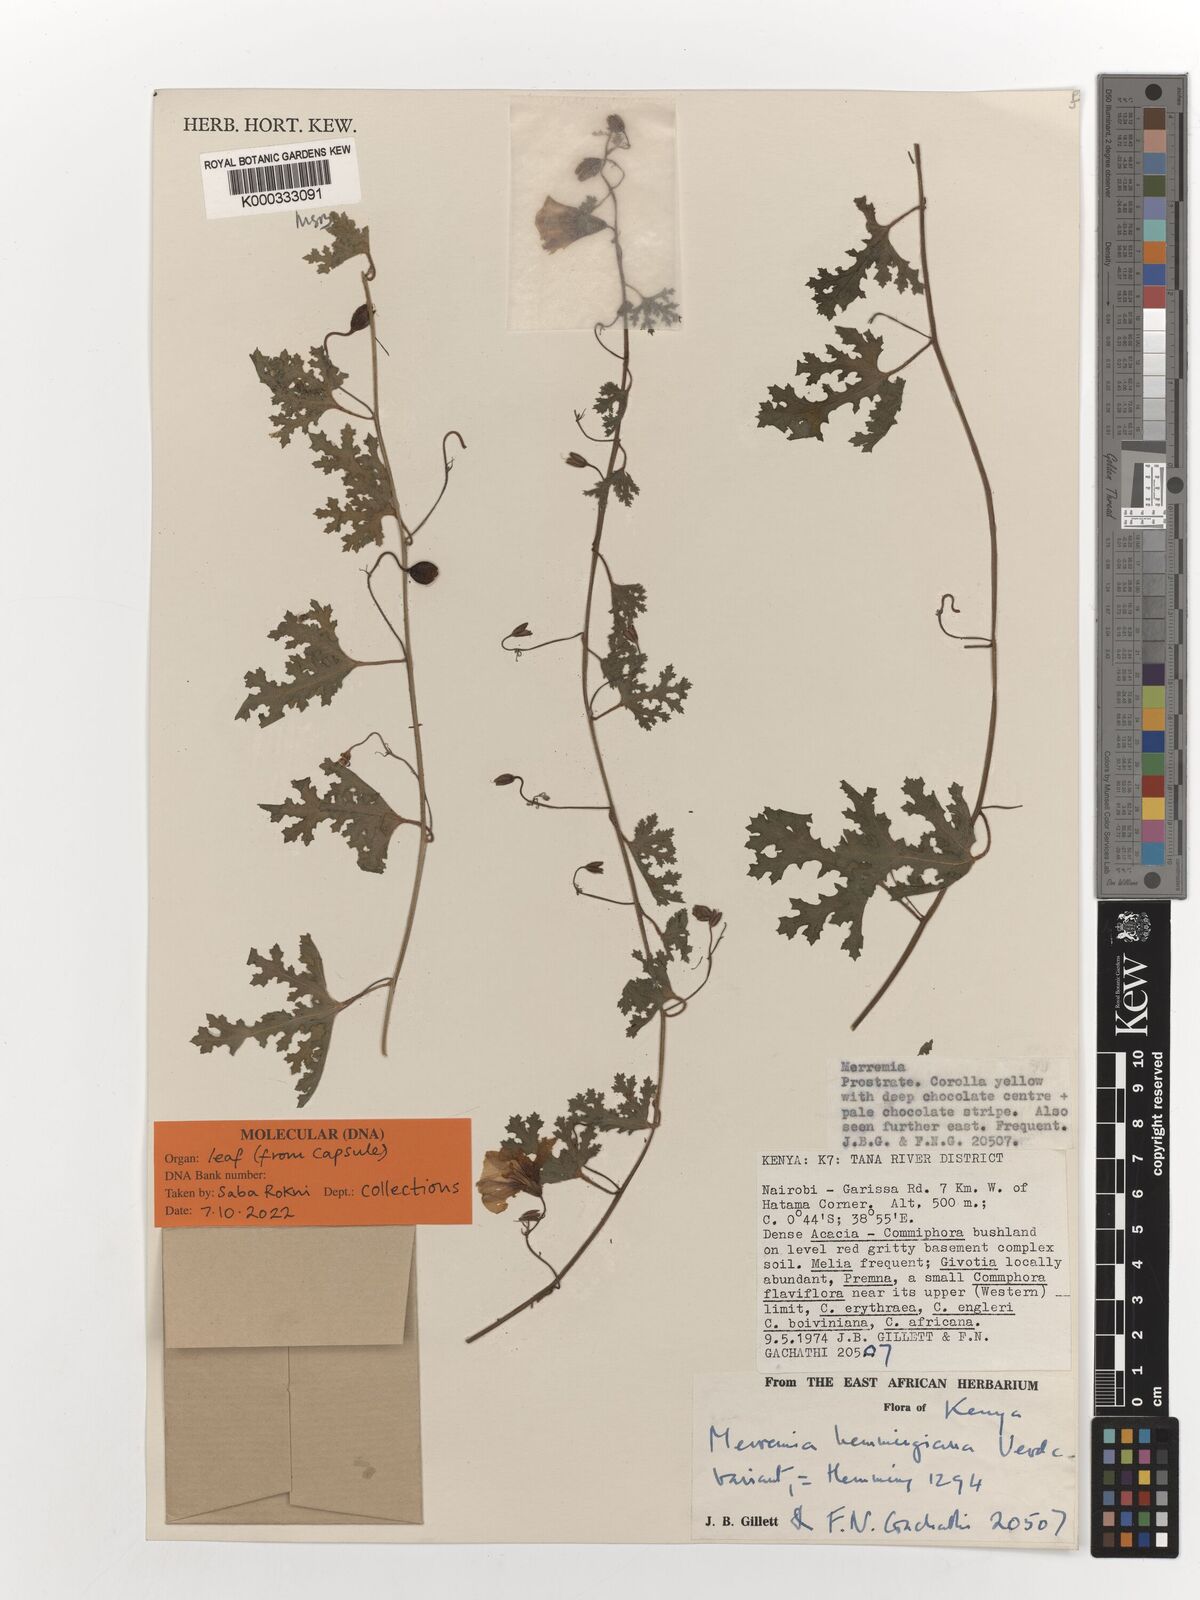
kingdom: Plantae
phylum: Tracheophyta
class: Magnoliopsida
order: Solanales
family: Convolvulaceae
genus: Merremia
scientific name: Merremia hemmingiana
